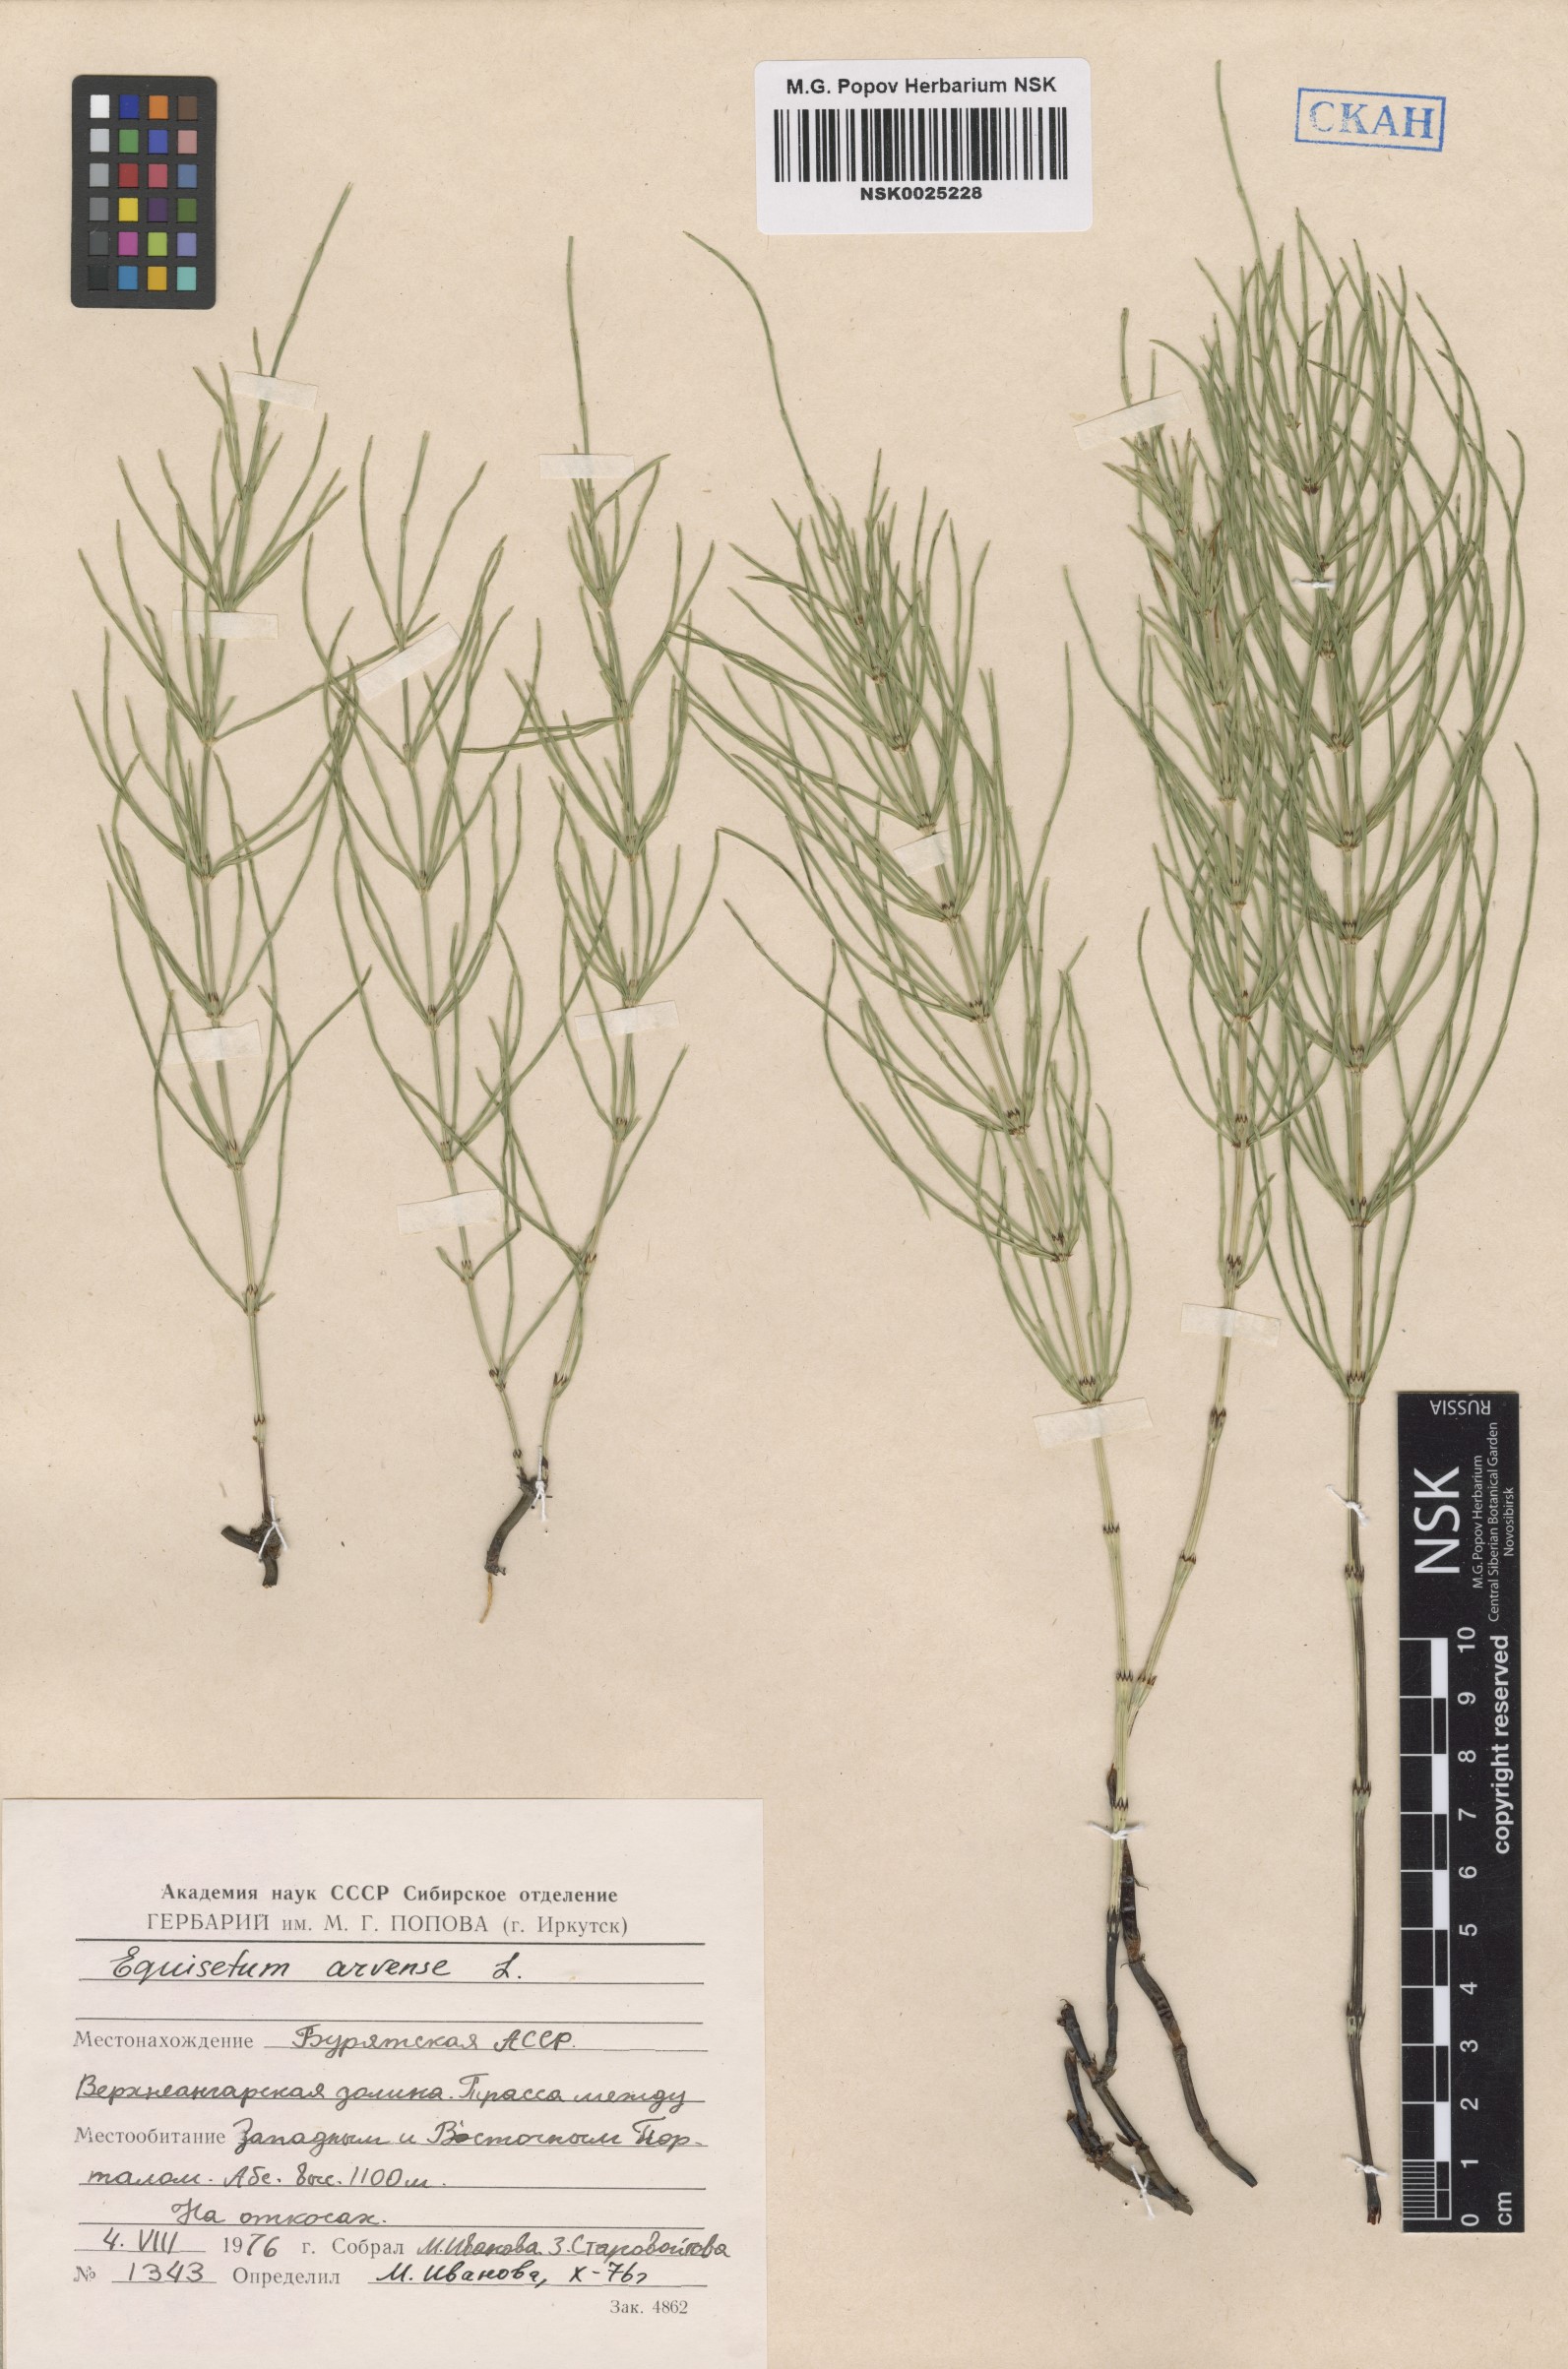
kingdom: Plantae
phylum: Tracheophyta
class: Polypodiopsida
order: Equisetales
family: Equisetaceae
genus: Equisetum
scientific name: Equisetum arvense
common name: Field horsetail
